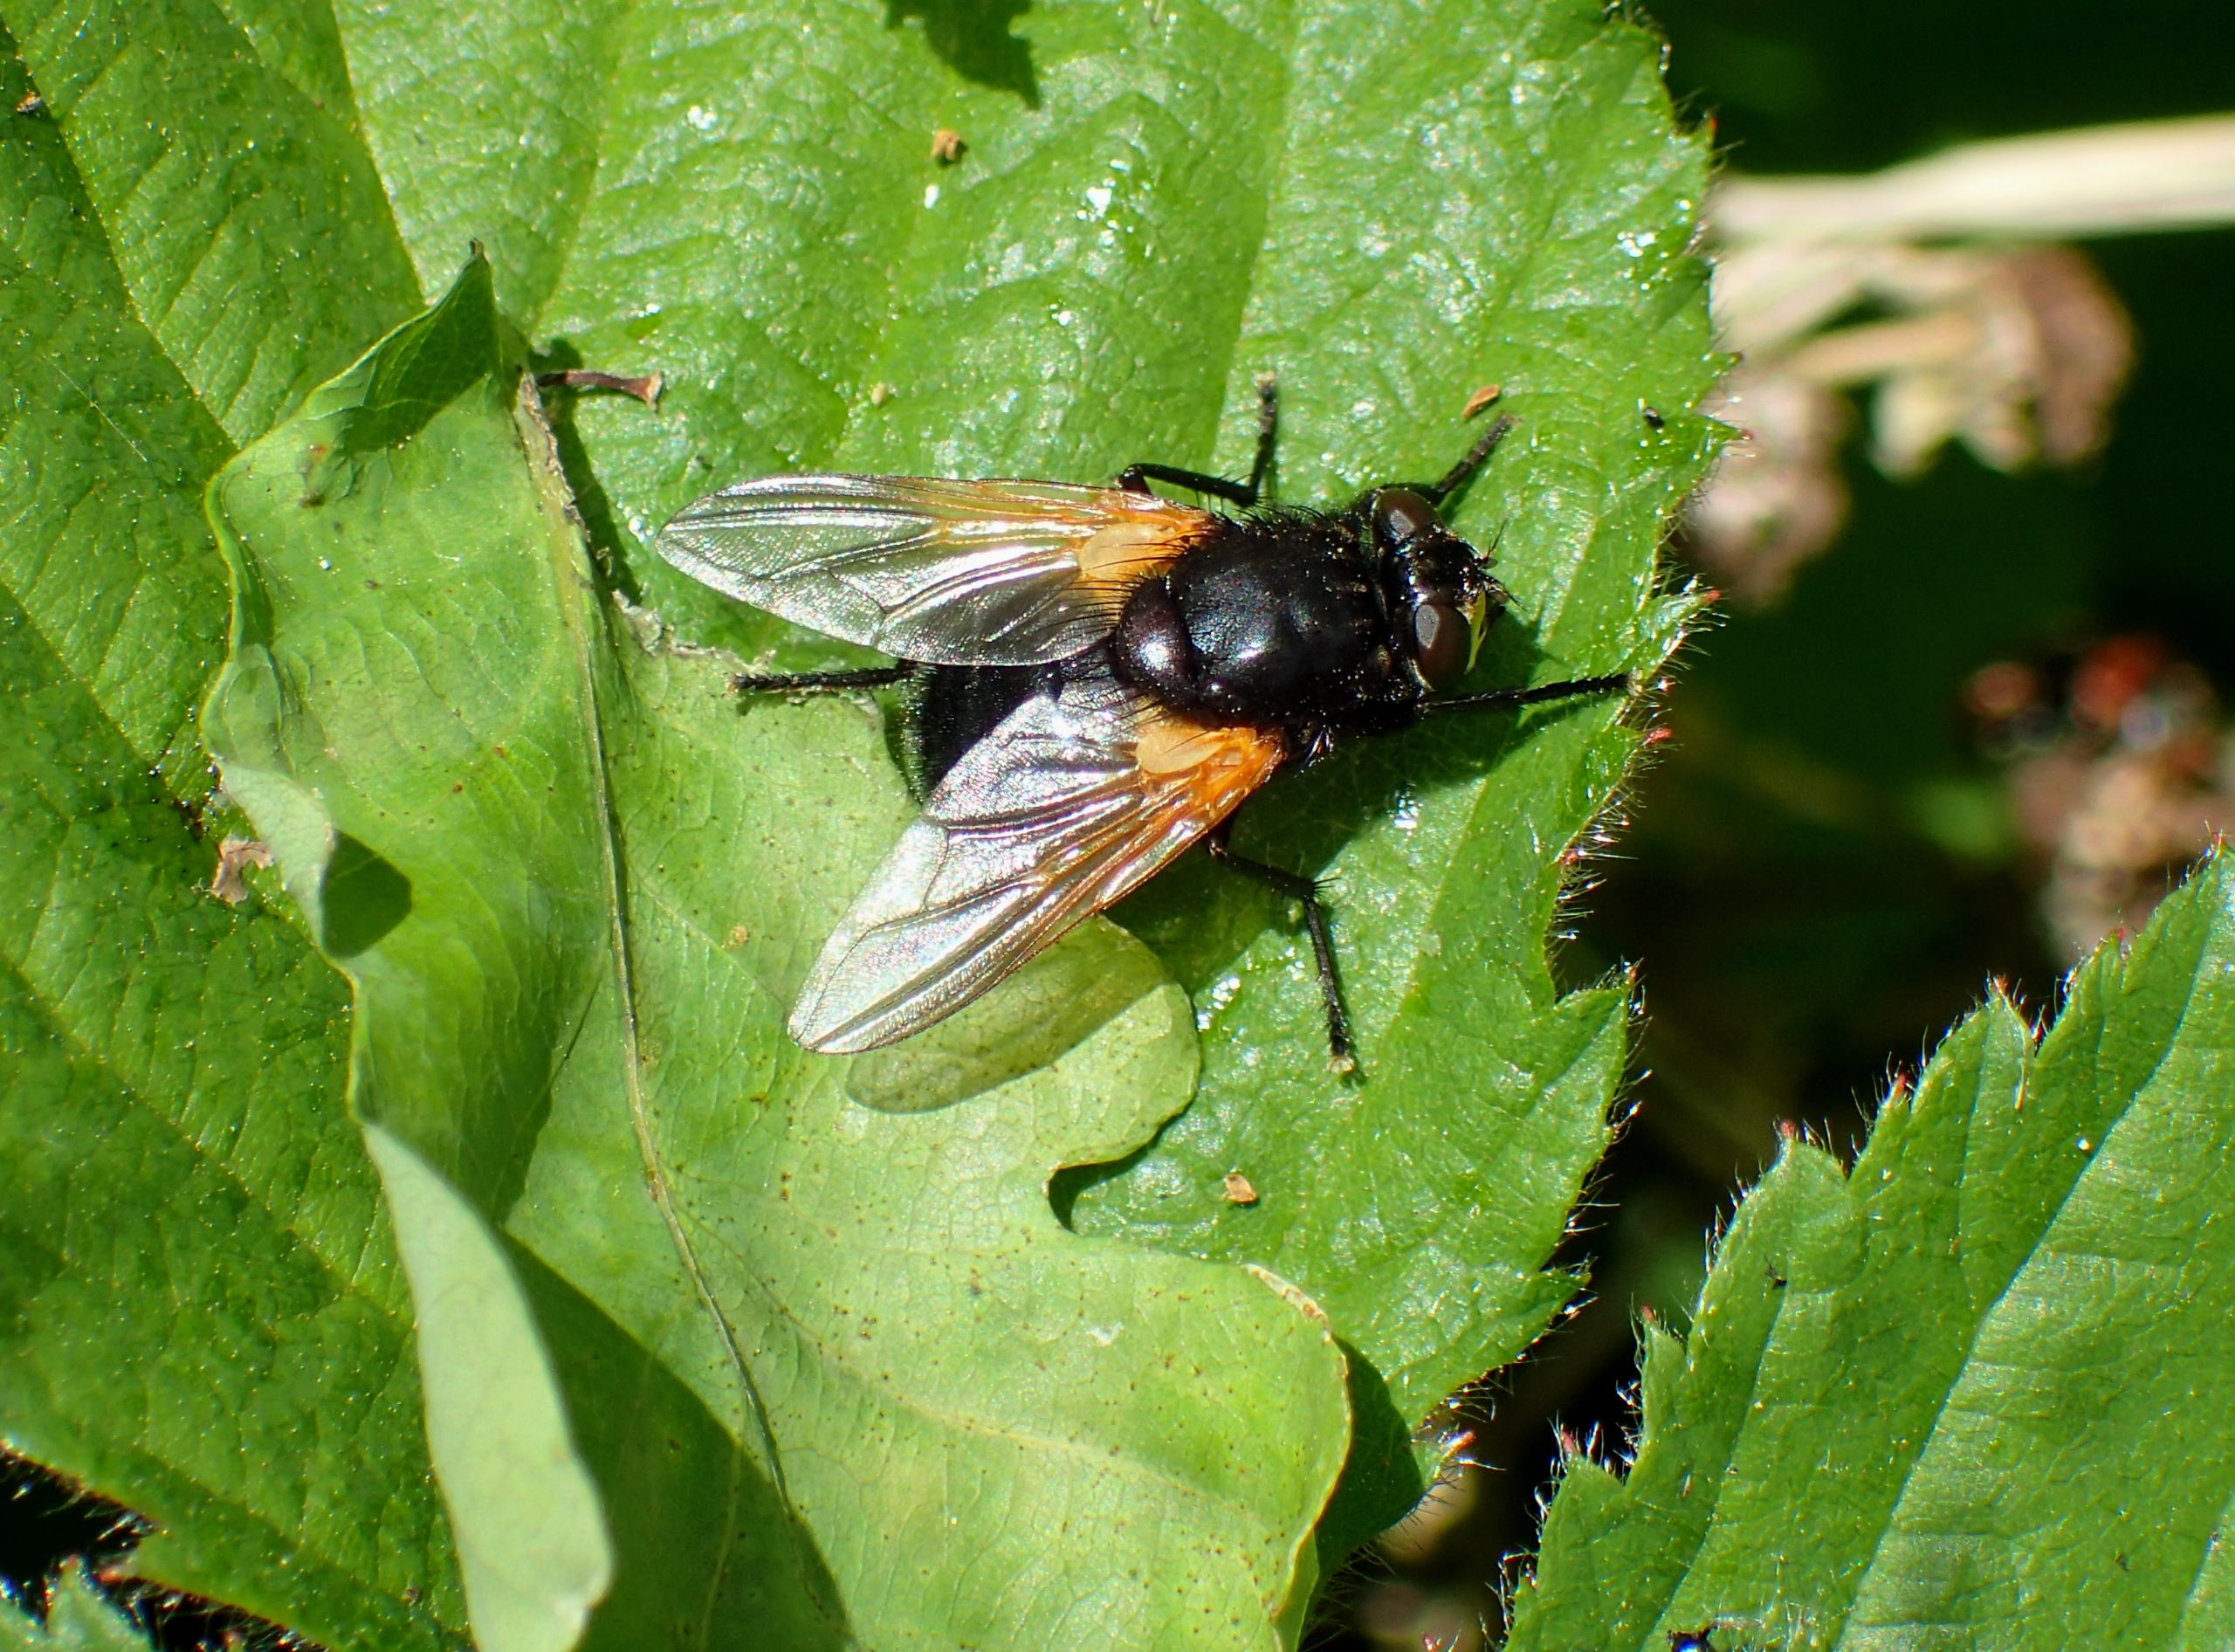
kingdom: Animalia
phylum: Arthropoda
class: Insecta
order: Diptera
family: Muscidae
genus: Mesembrina
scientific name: Mesembrina meridiana
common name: Gulvinget flue
